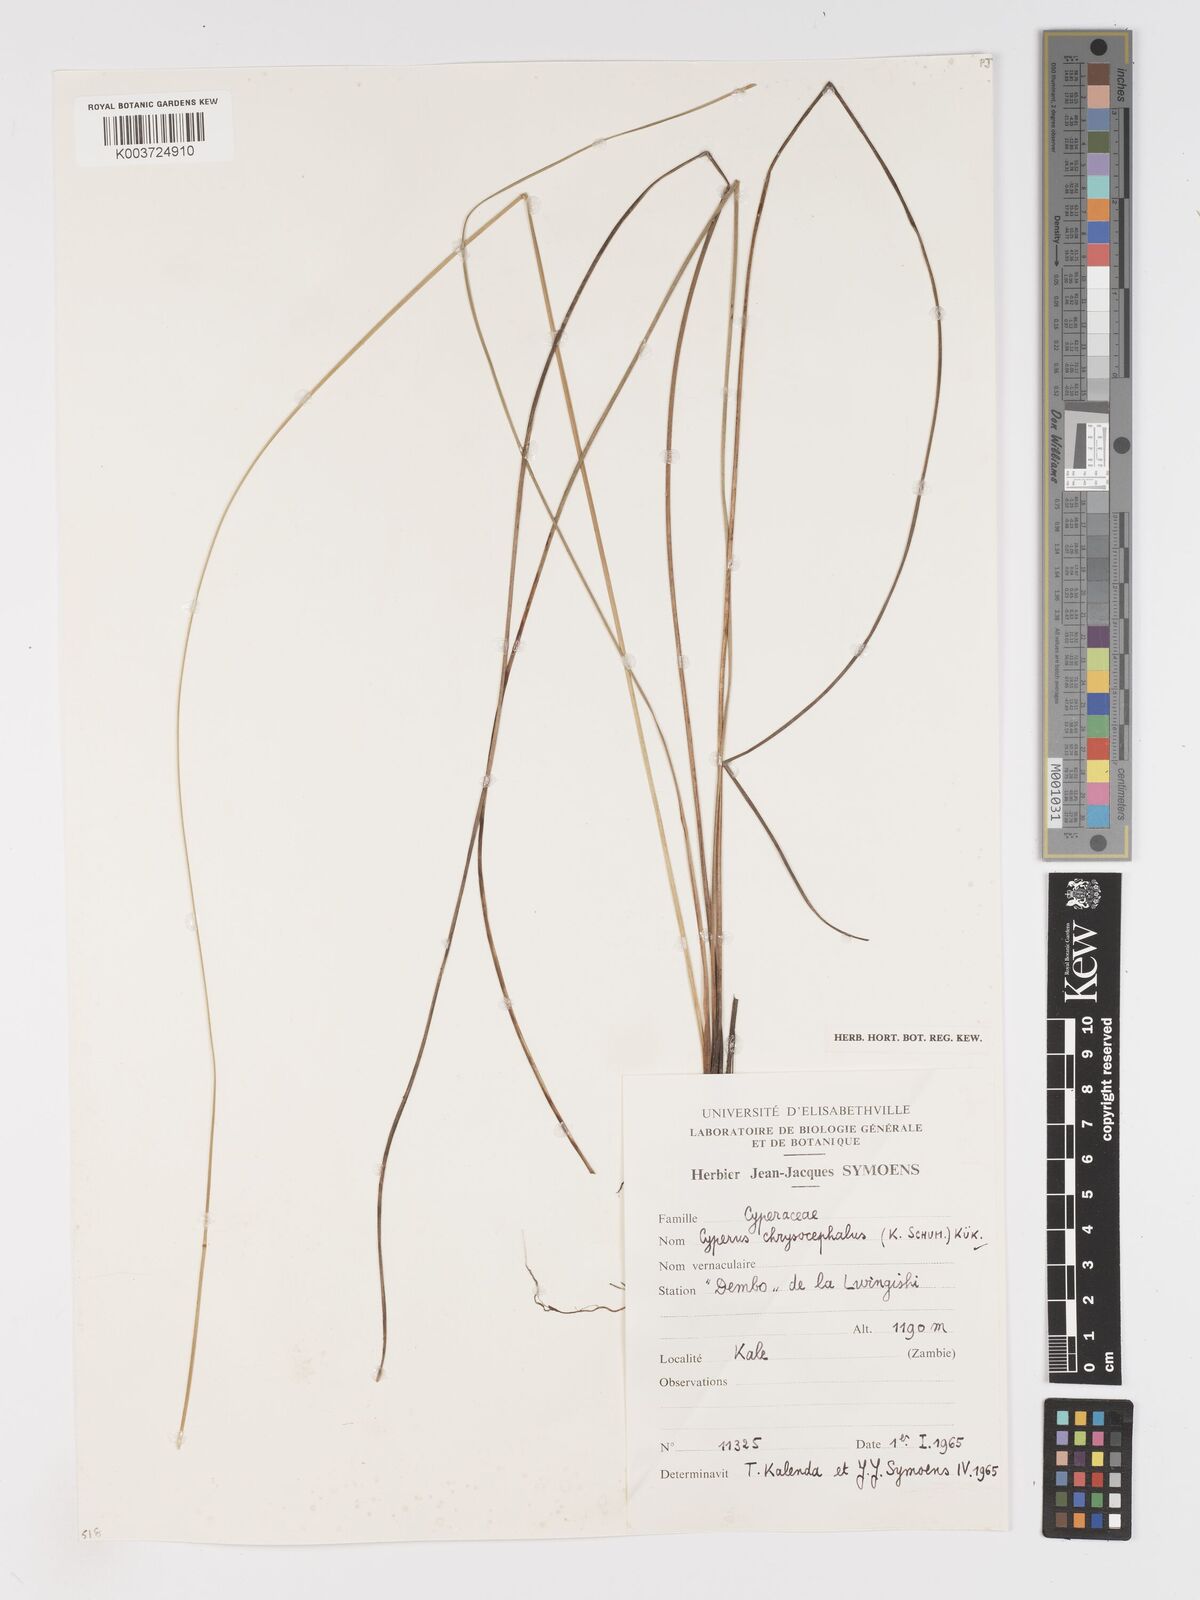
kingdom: Plantae
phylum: Tracheophyta
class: Liliopsida
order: Poales
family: Cyperaceae
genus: Cyperus
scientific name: Cyperus chrysocephalus
